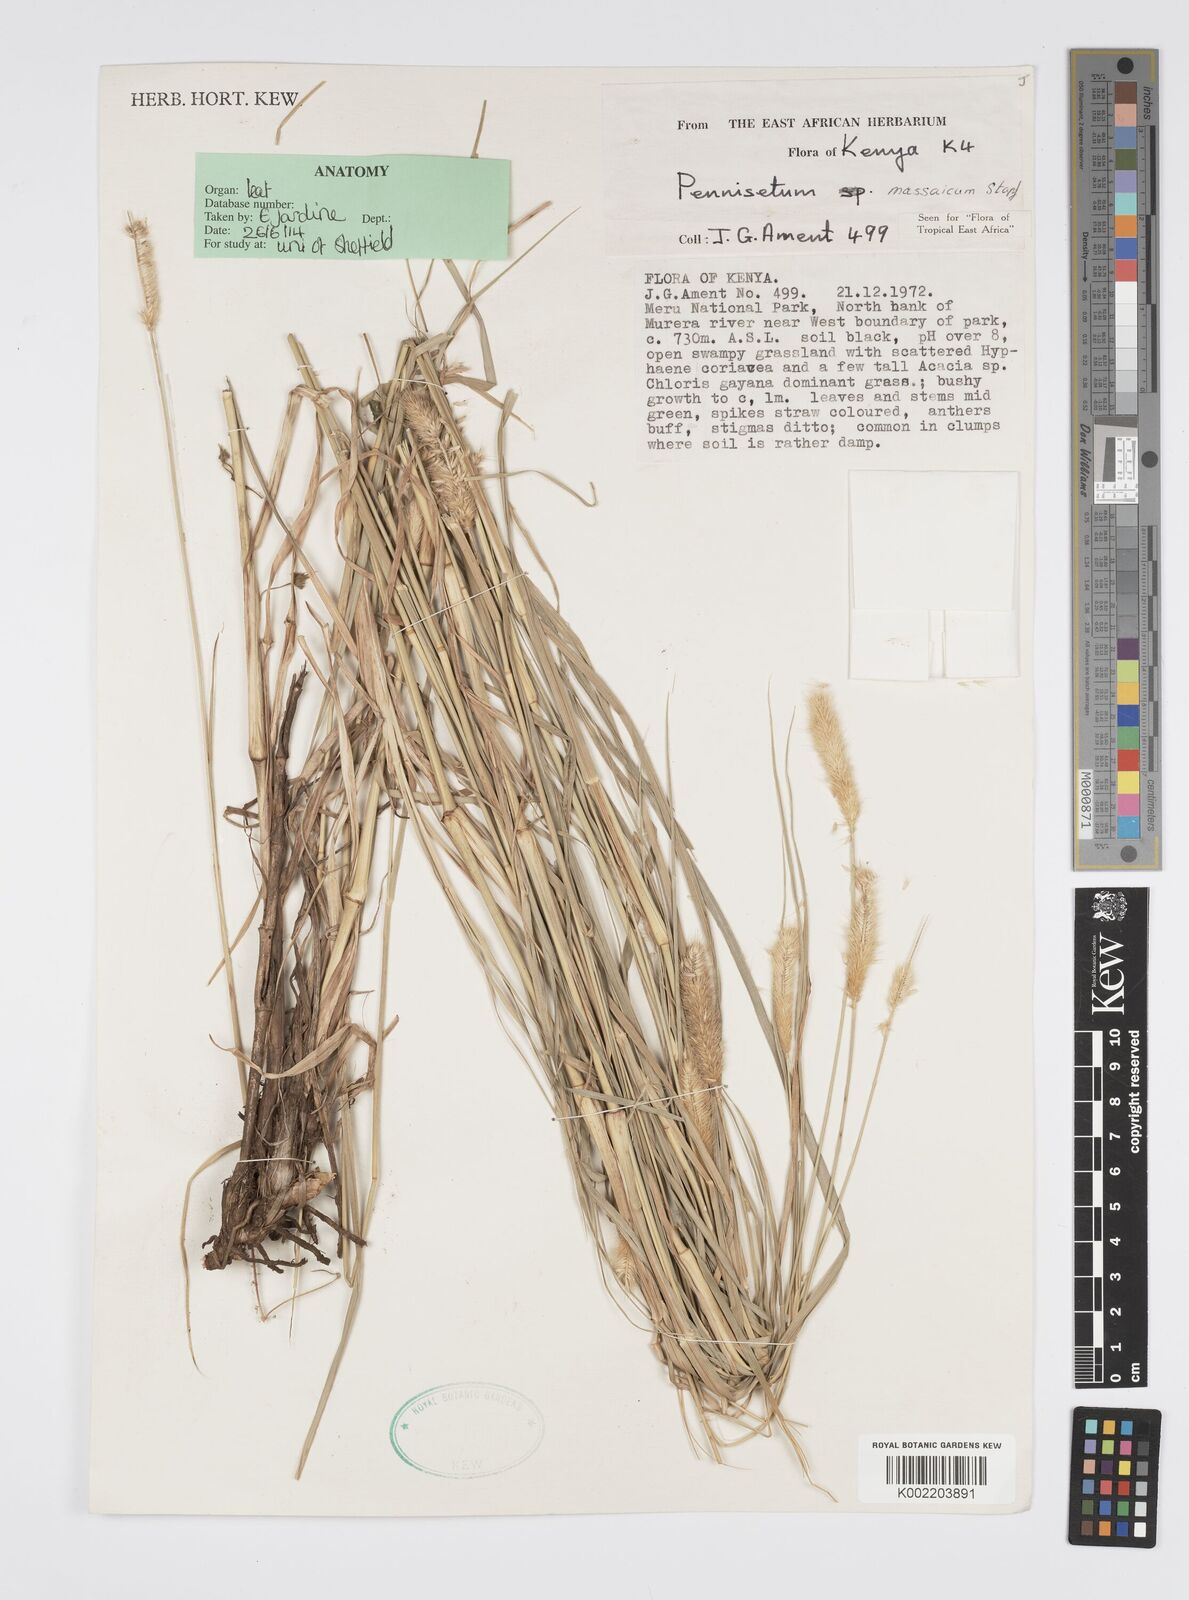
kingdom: Plantae
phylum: Tracheophyta
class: Liliopsida
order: Poales
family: Poaceae
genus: Cenchrus
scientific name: Cenchrus massaicus
